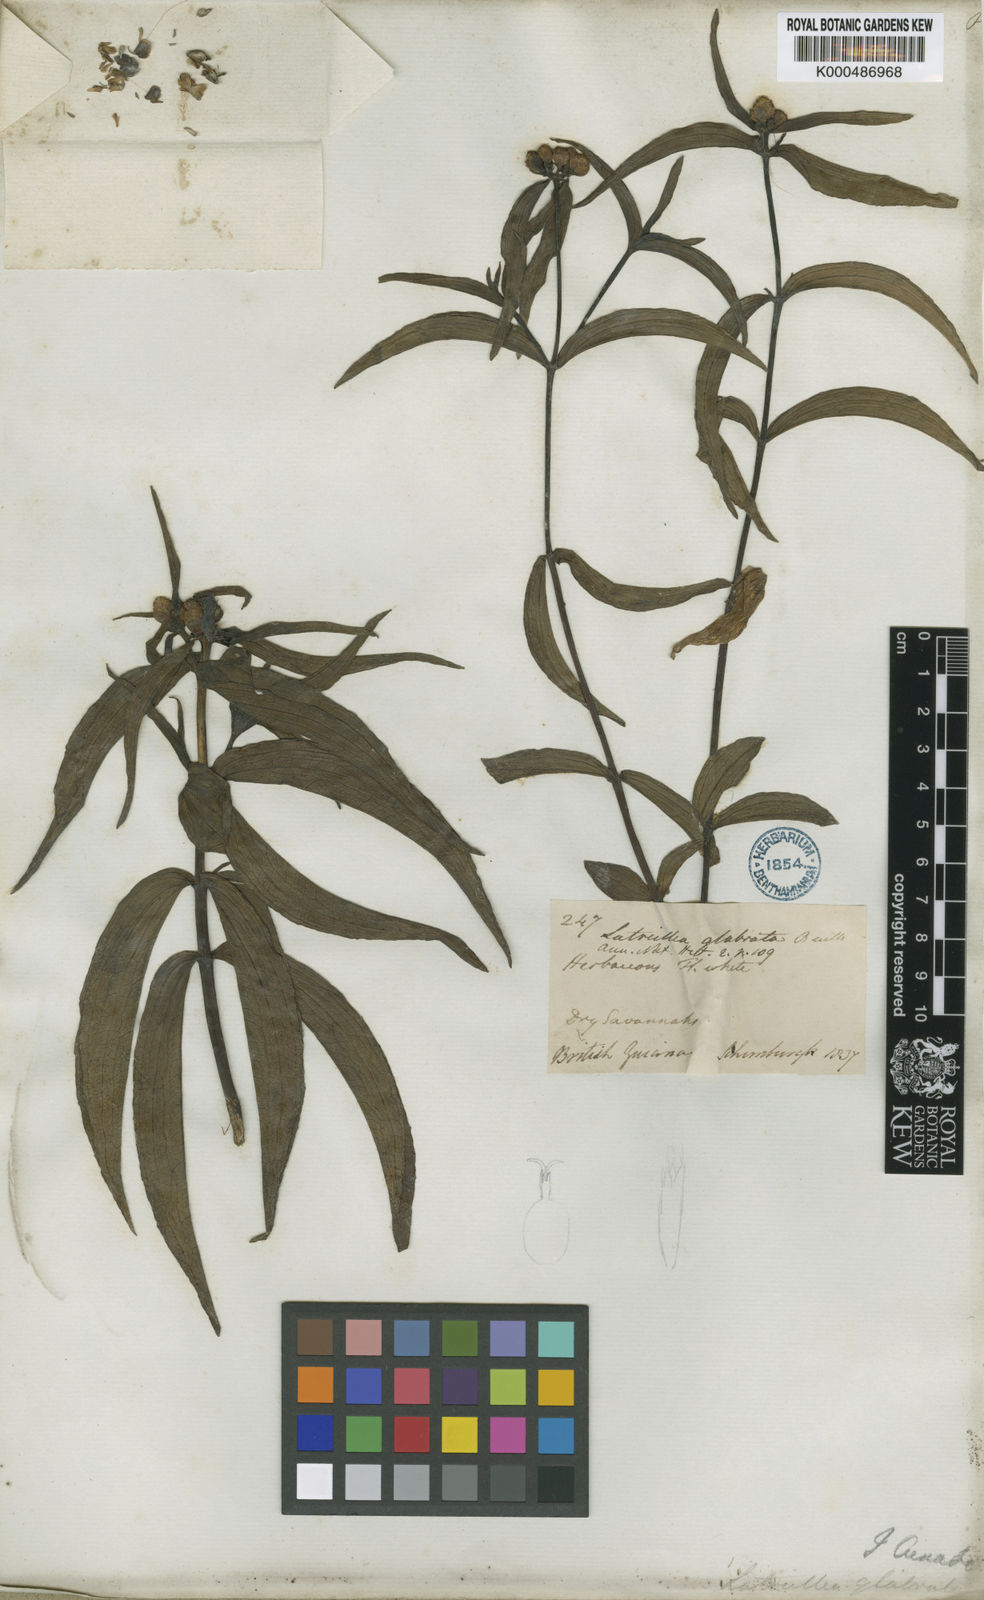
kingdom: Plantae
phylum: Tracheophyta
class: Magnoliopsida
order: Asterales
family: Asteraceae
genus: Ichthyothere
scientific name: Ichthyothere terminalis
